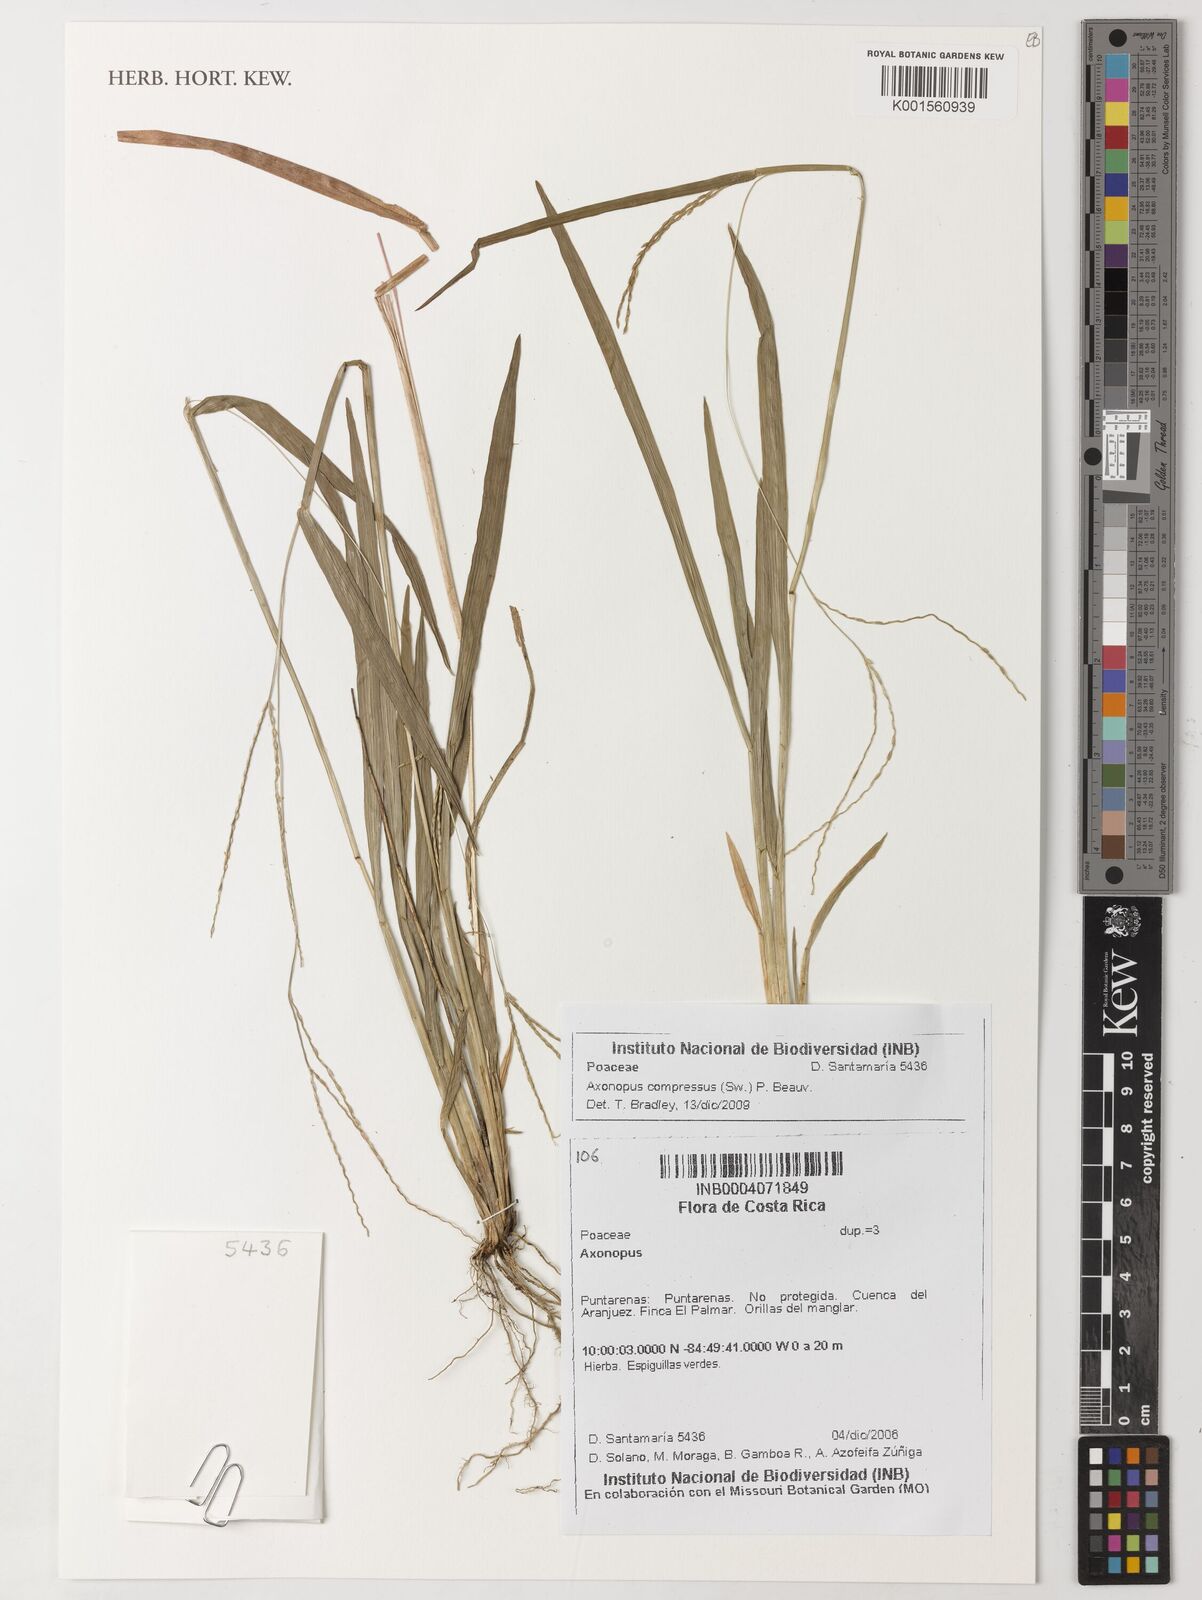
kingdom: Plantae
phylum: Tracheophyta
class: Liliopsida
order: Poales
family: Poaceae
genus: Axonopus
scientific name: Axonopus compressus
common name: American carpet grass
